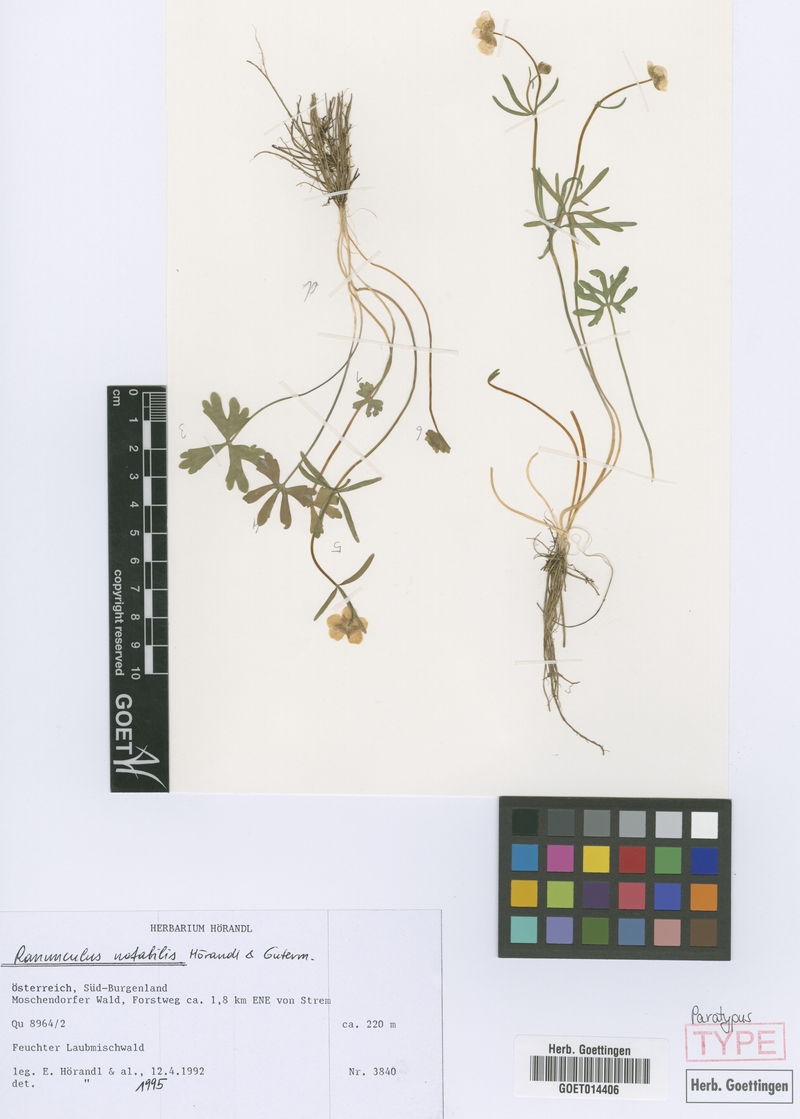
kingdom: Plantae
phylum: Tracheophyta
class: Magnoliopsida
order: Ranunculales
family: Ranunculaceae
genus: Ranunculus
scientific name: Ranunculus notabilis
